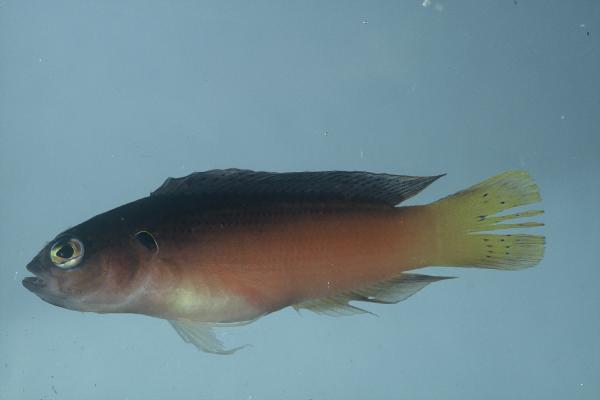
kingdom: Animalia
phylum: Chordata
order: Perciformes
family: Pseudochromidae
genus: Pseudochromis
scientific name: Pseudochromis melas
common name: Dark dottyback
